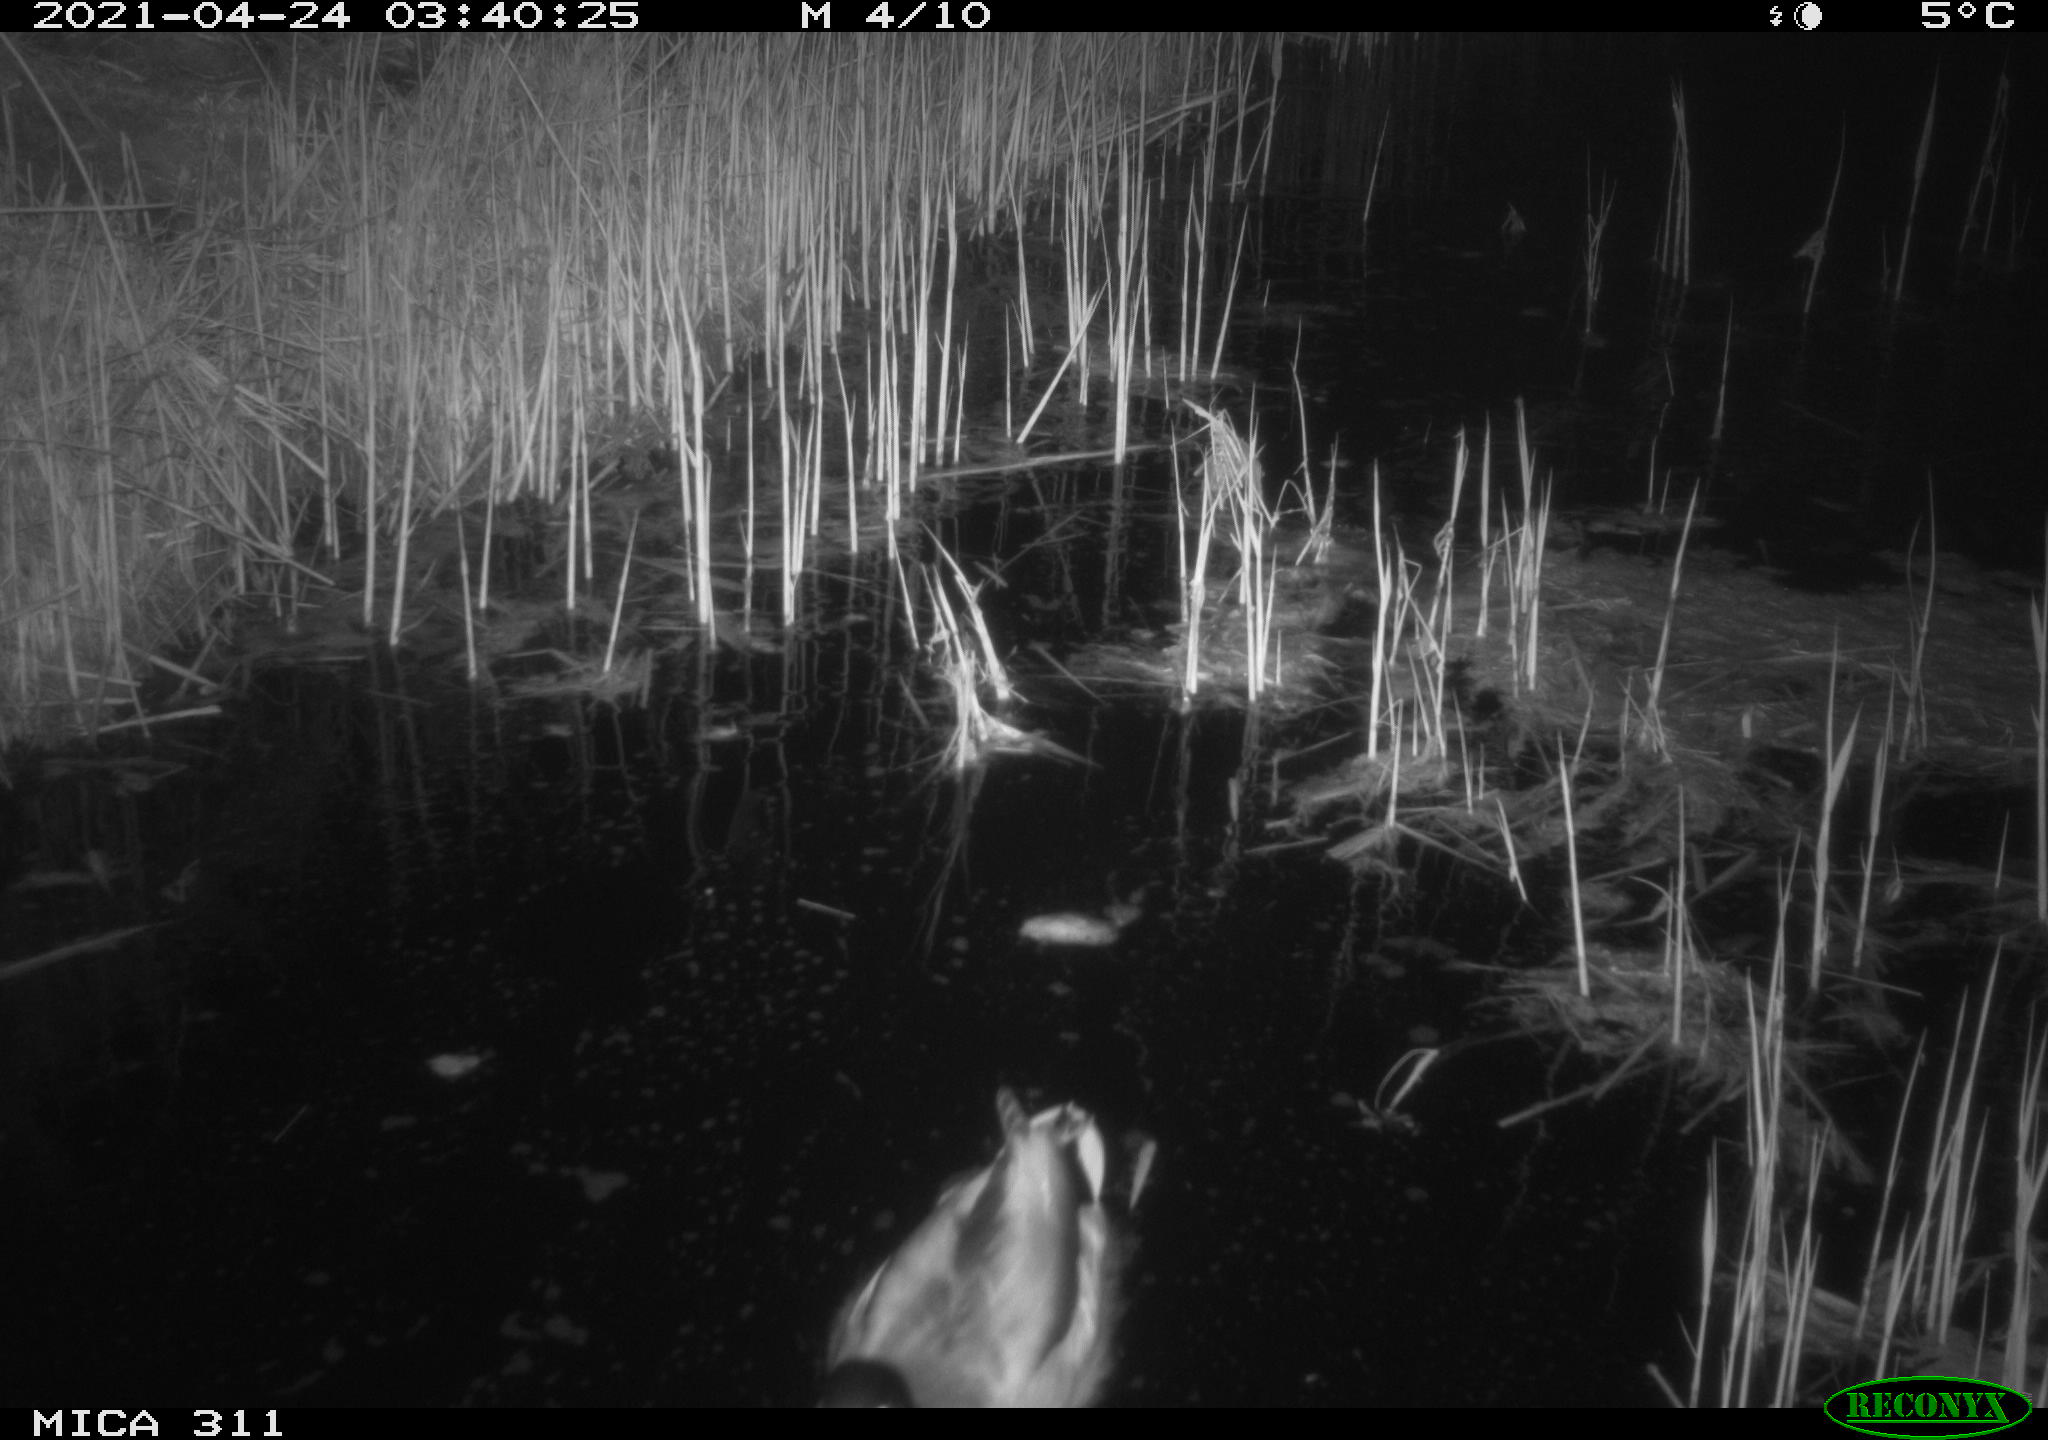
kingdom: Animalia
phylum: Chordata
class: Aves
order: Anseriformes
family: Anatidae
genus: Anas
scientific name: Anas platyrhynchos
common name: Mallard
